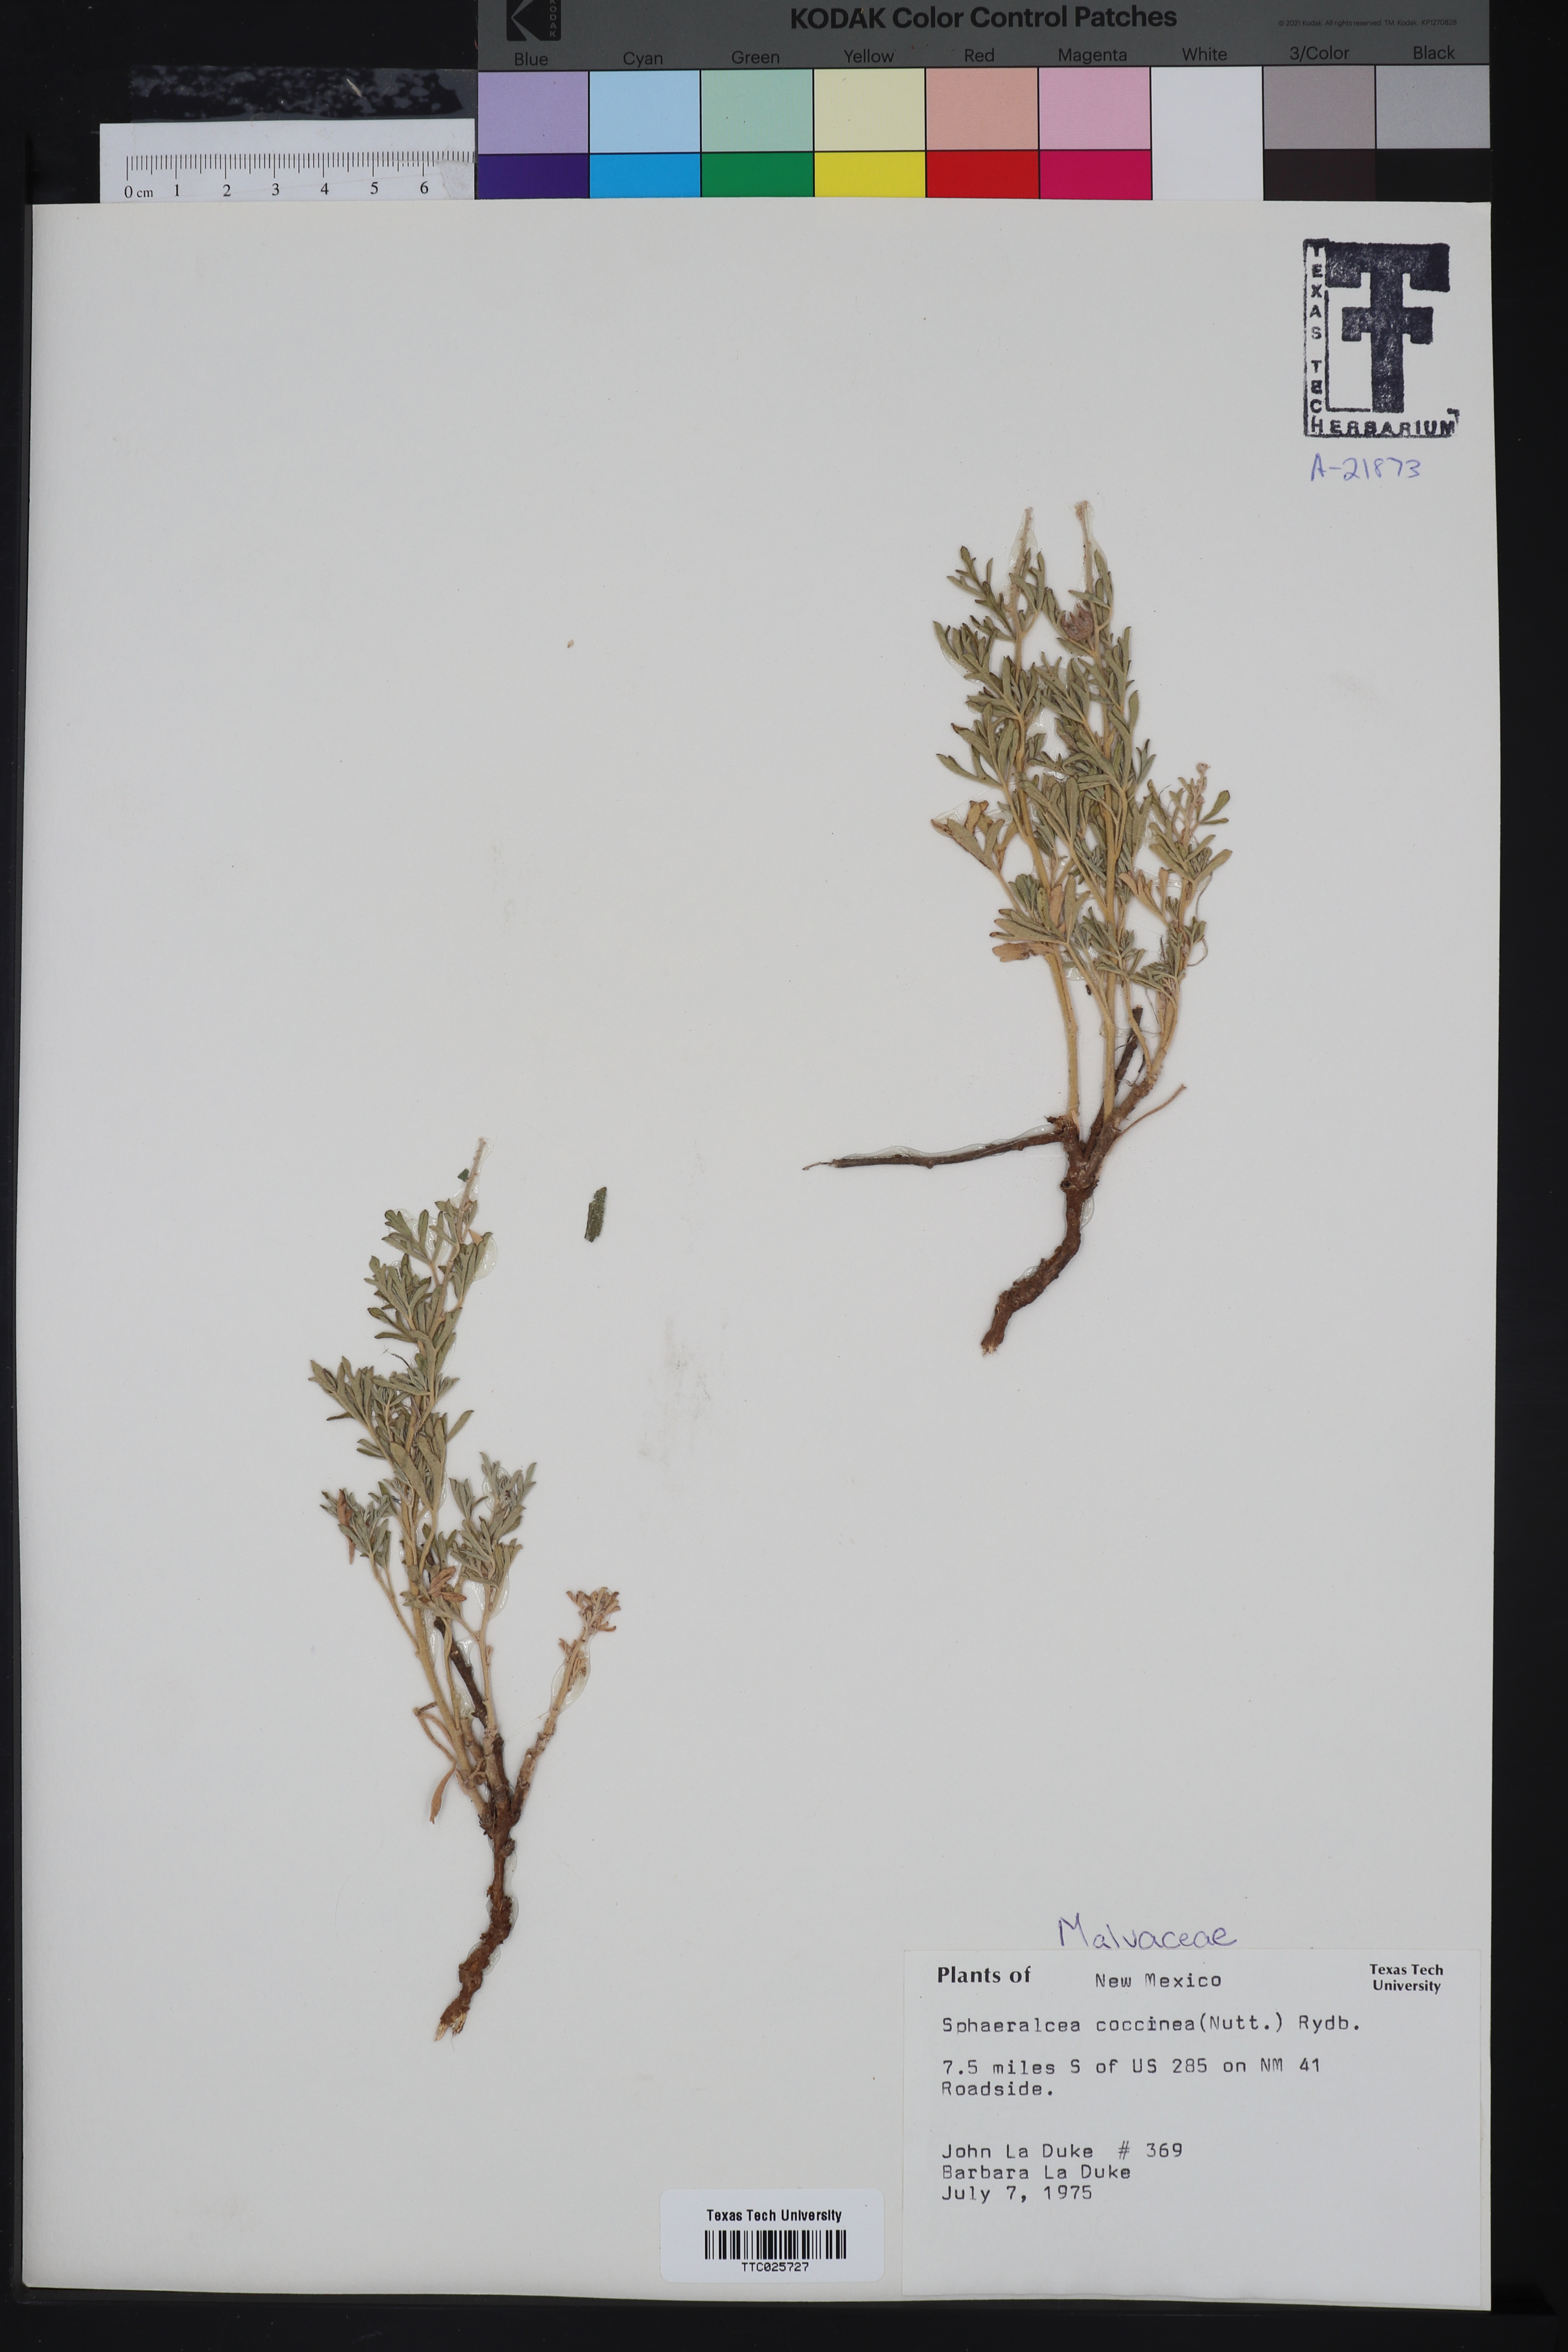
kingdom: Plantae
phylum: Tracheophyta
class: Magnoliopsida
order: Malvales
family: Malvaceae
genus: Sphaeralcea
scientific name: Sphaeralcea coccinea
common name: Moss-rose
